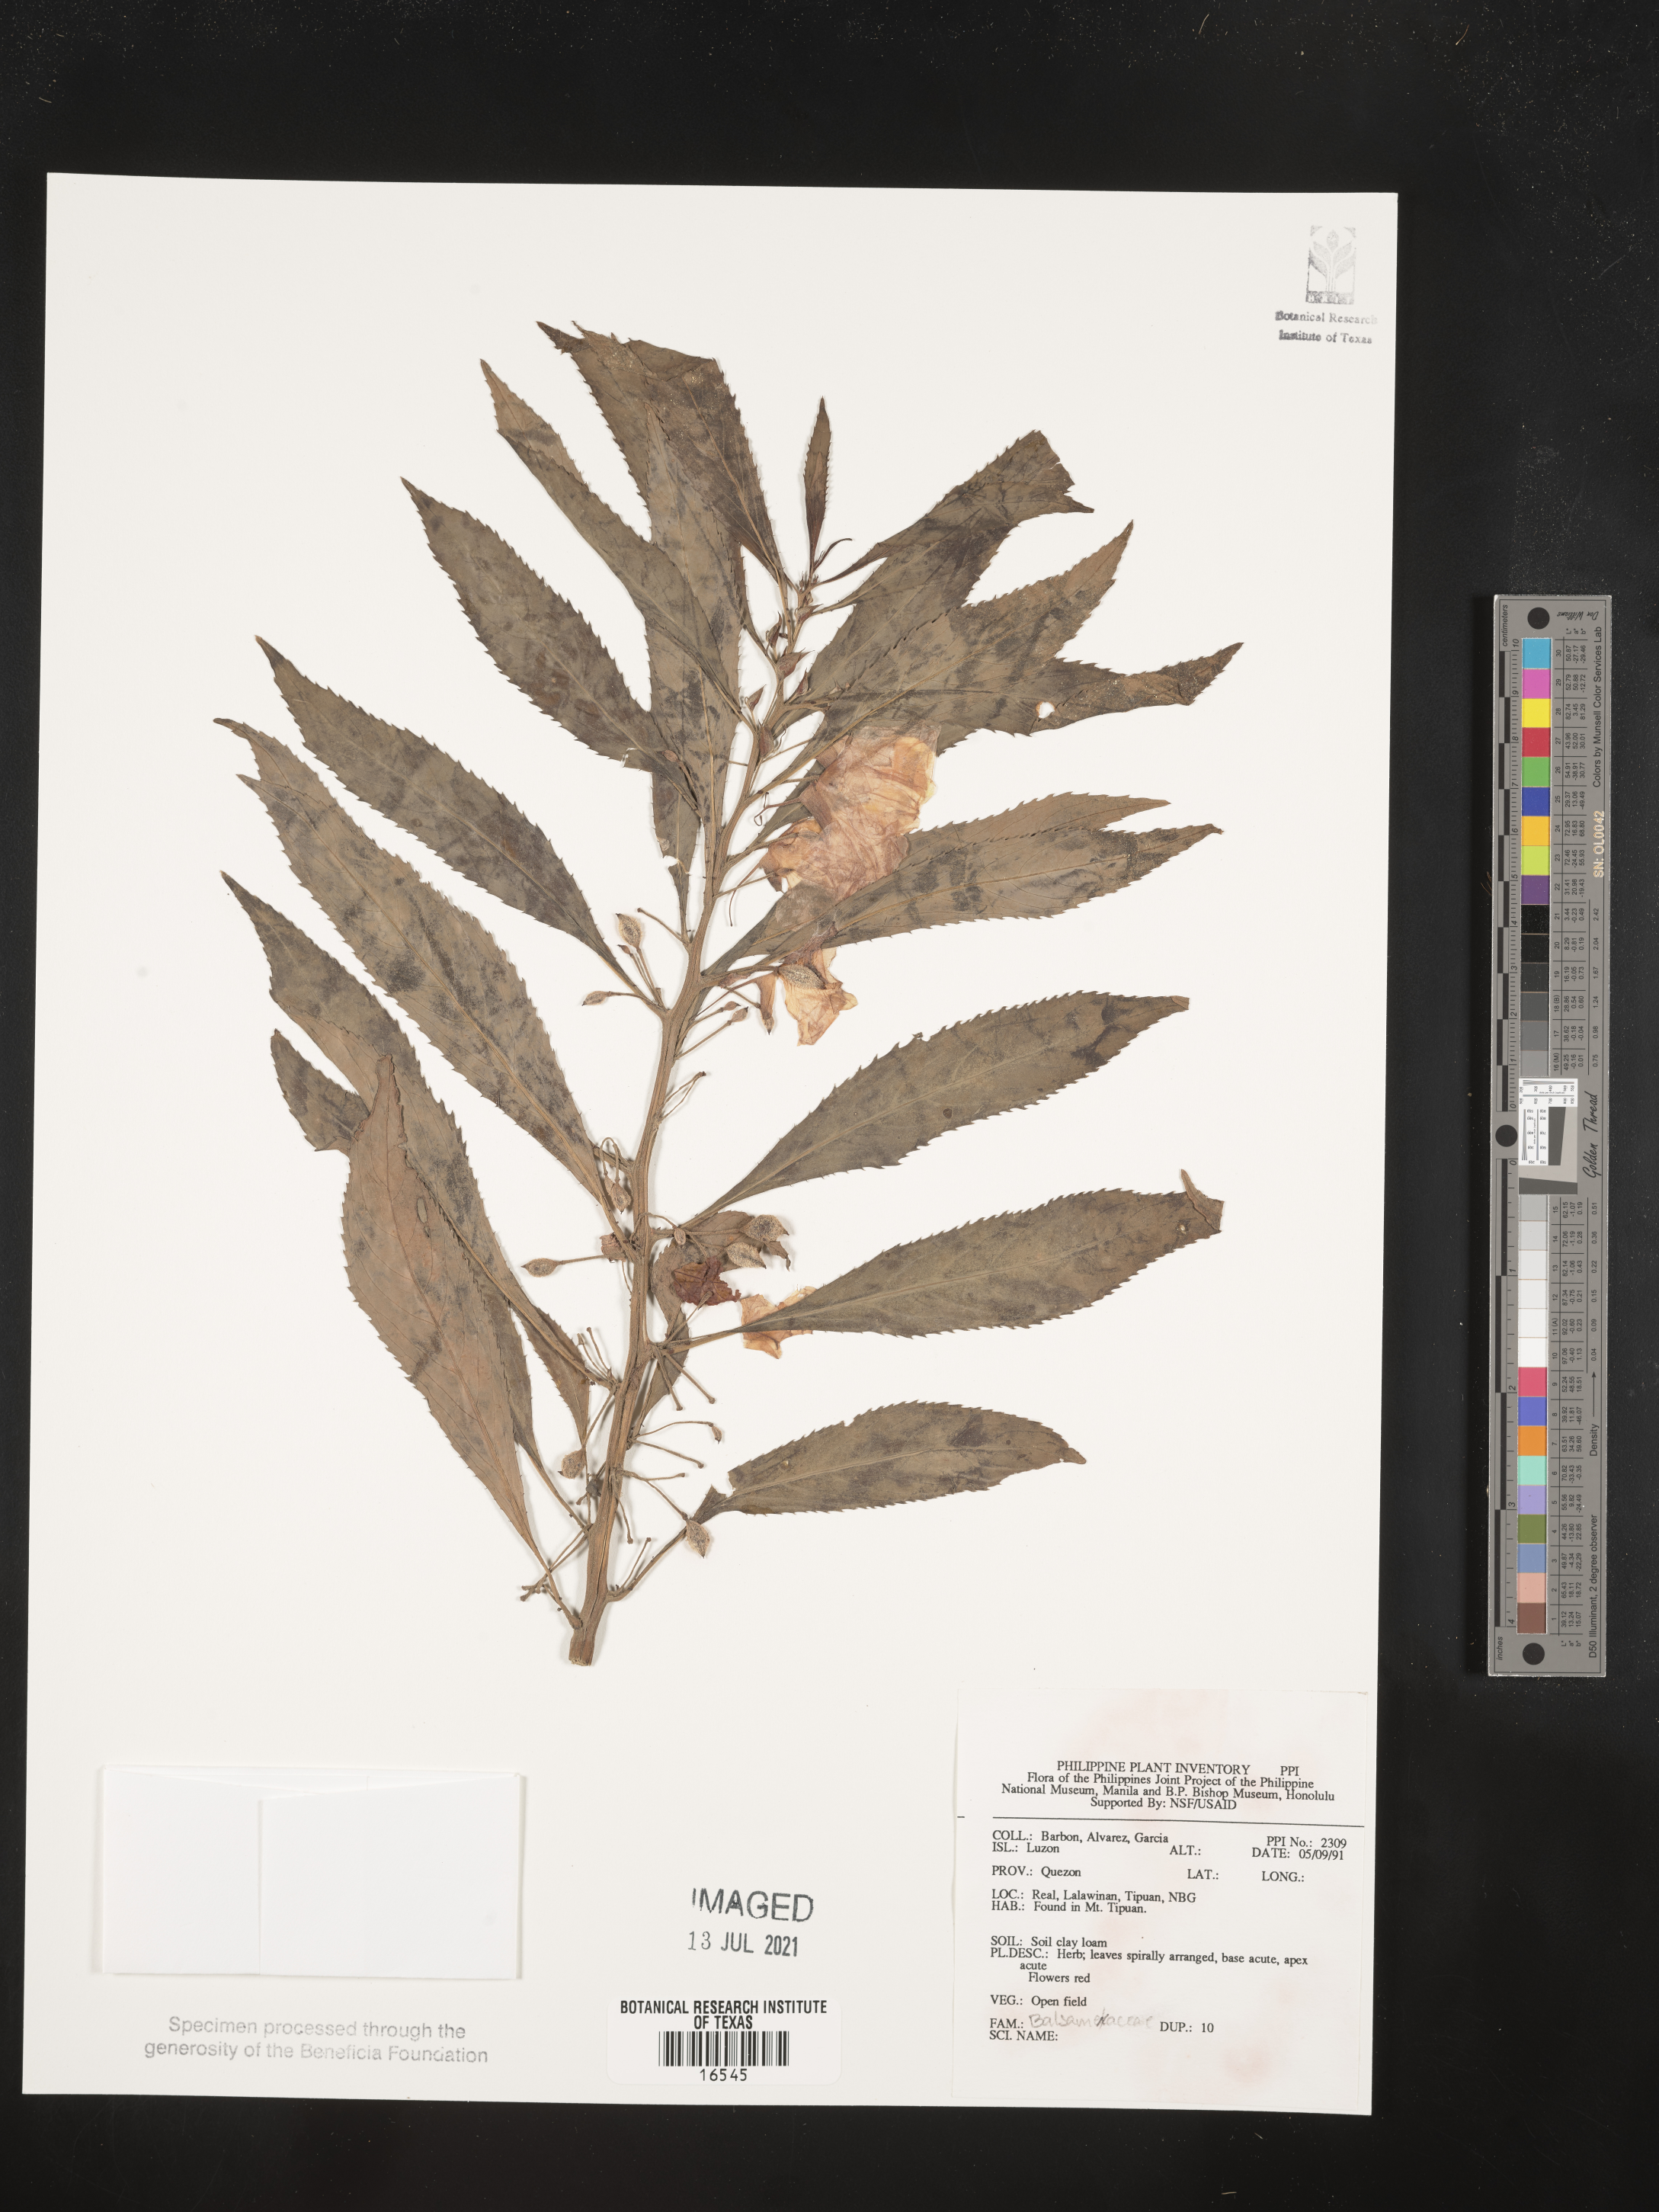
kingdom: Plantae
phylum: Tracheophyta
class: Magnoliopsida
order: Ericales
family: Balsaminaceae
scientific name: Balsaminaceae
